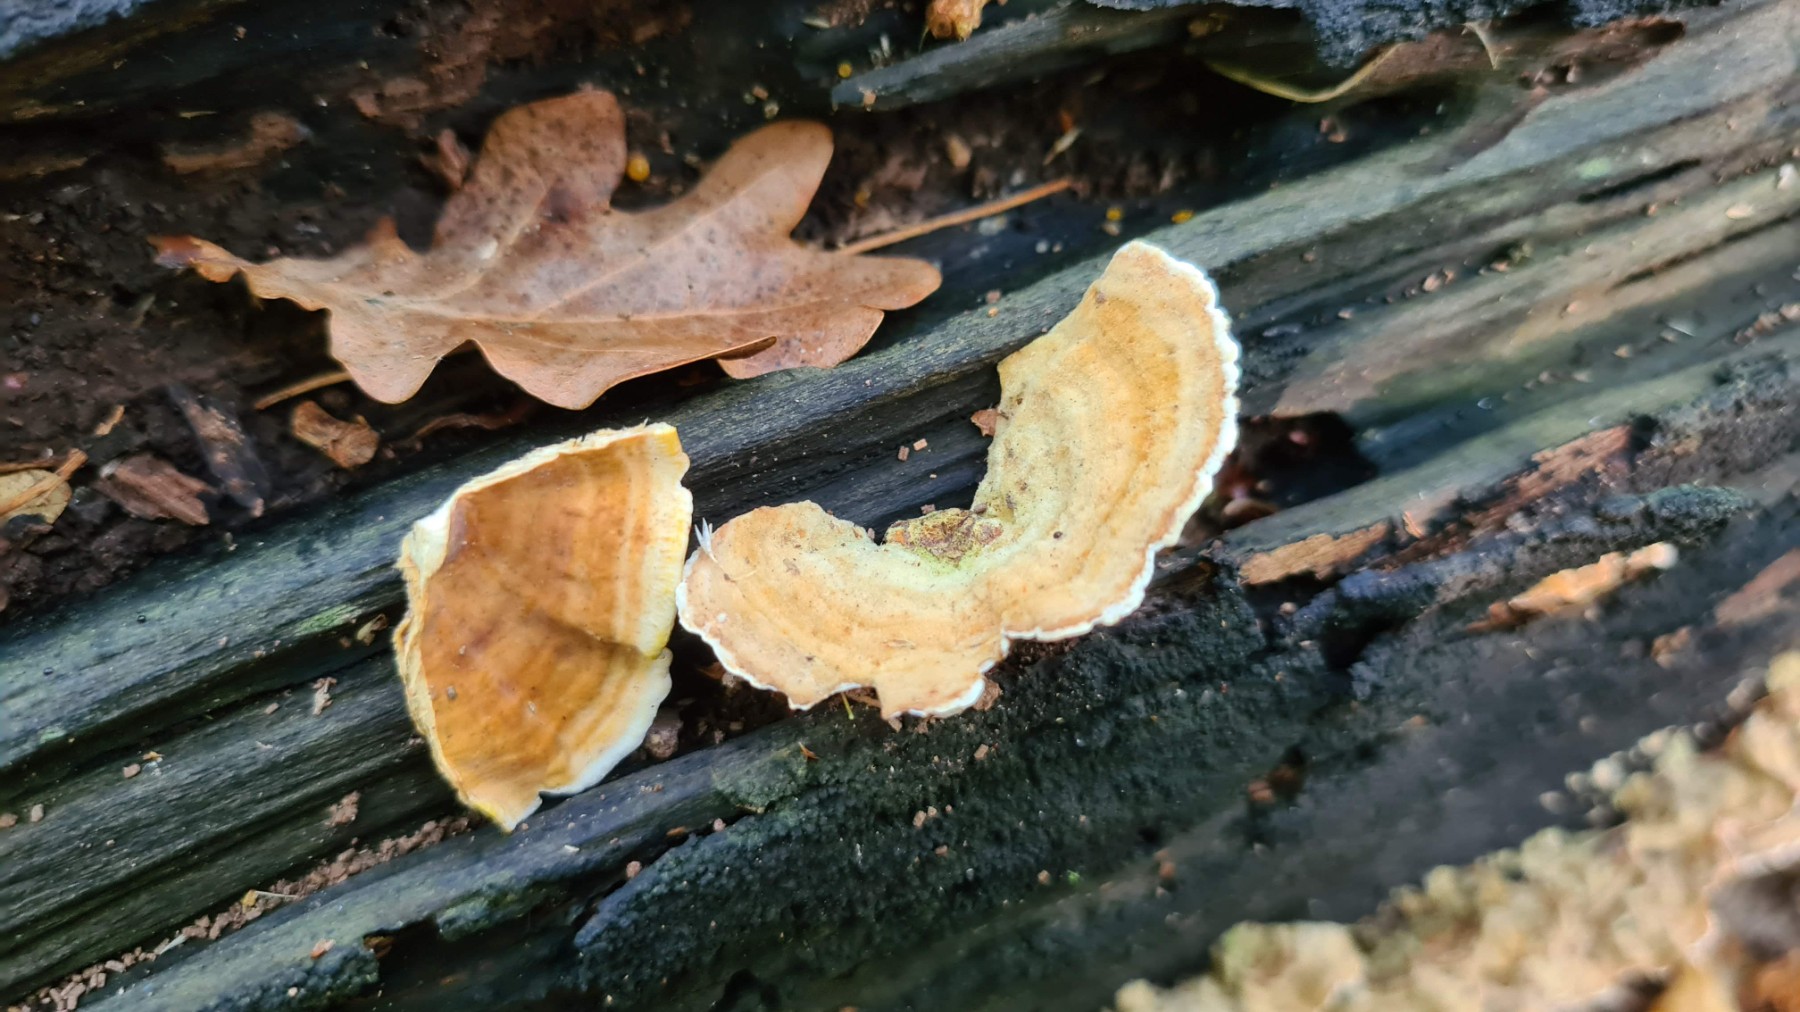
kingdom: Fungi
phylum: Basidiomycota
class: Agaricomycetes
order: Russulales
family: Stereaceae
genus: Stereum
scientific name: Stereum subtomentosum
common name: smuk lædersvamp
